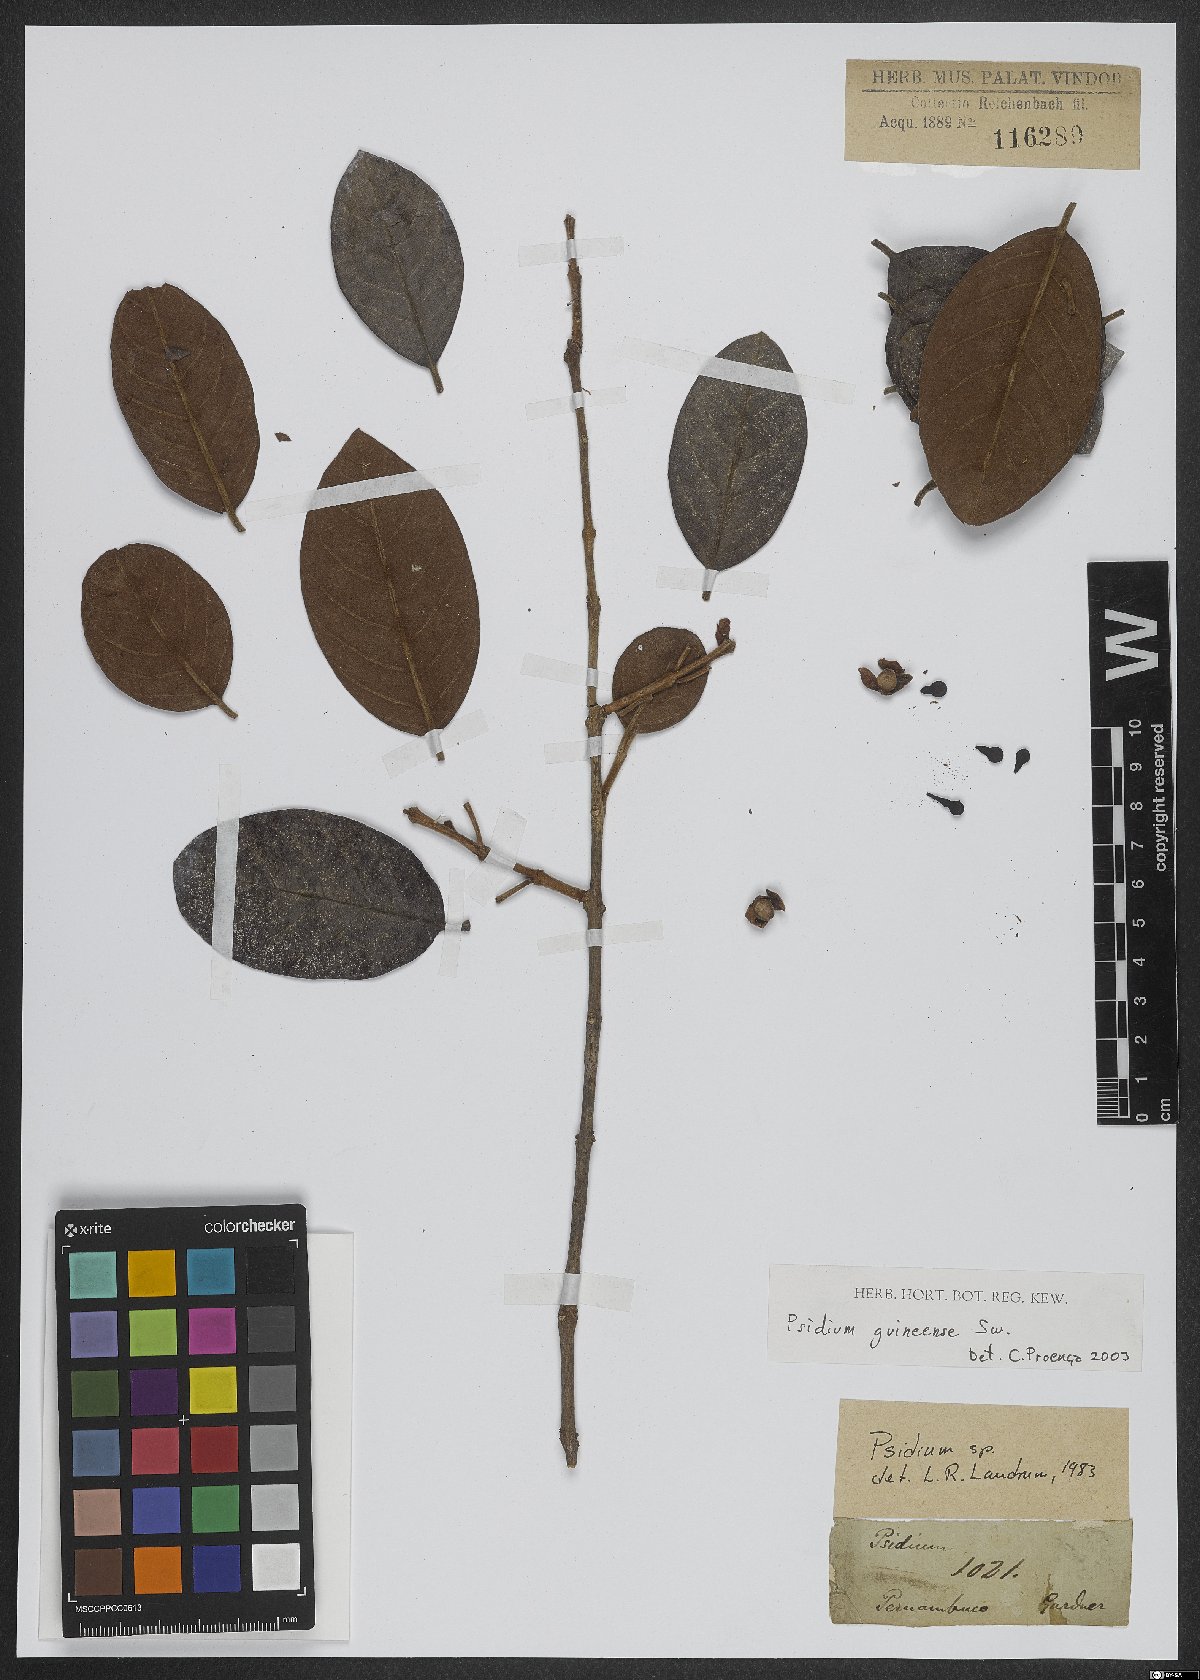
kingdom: Plantae
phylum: Tracheophyta
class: Magnoliopsida
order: Myrtales
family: Myrtaceae
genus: Psidium
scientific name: Psidium guineense
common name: Brazilian guava
